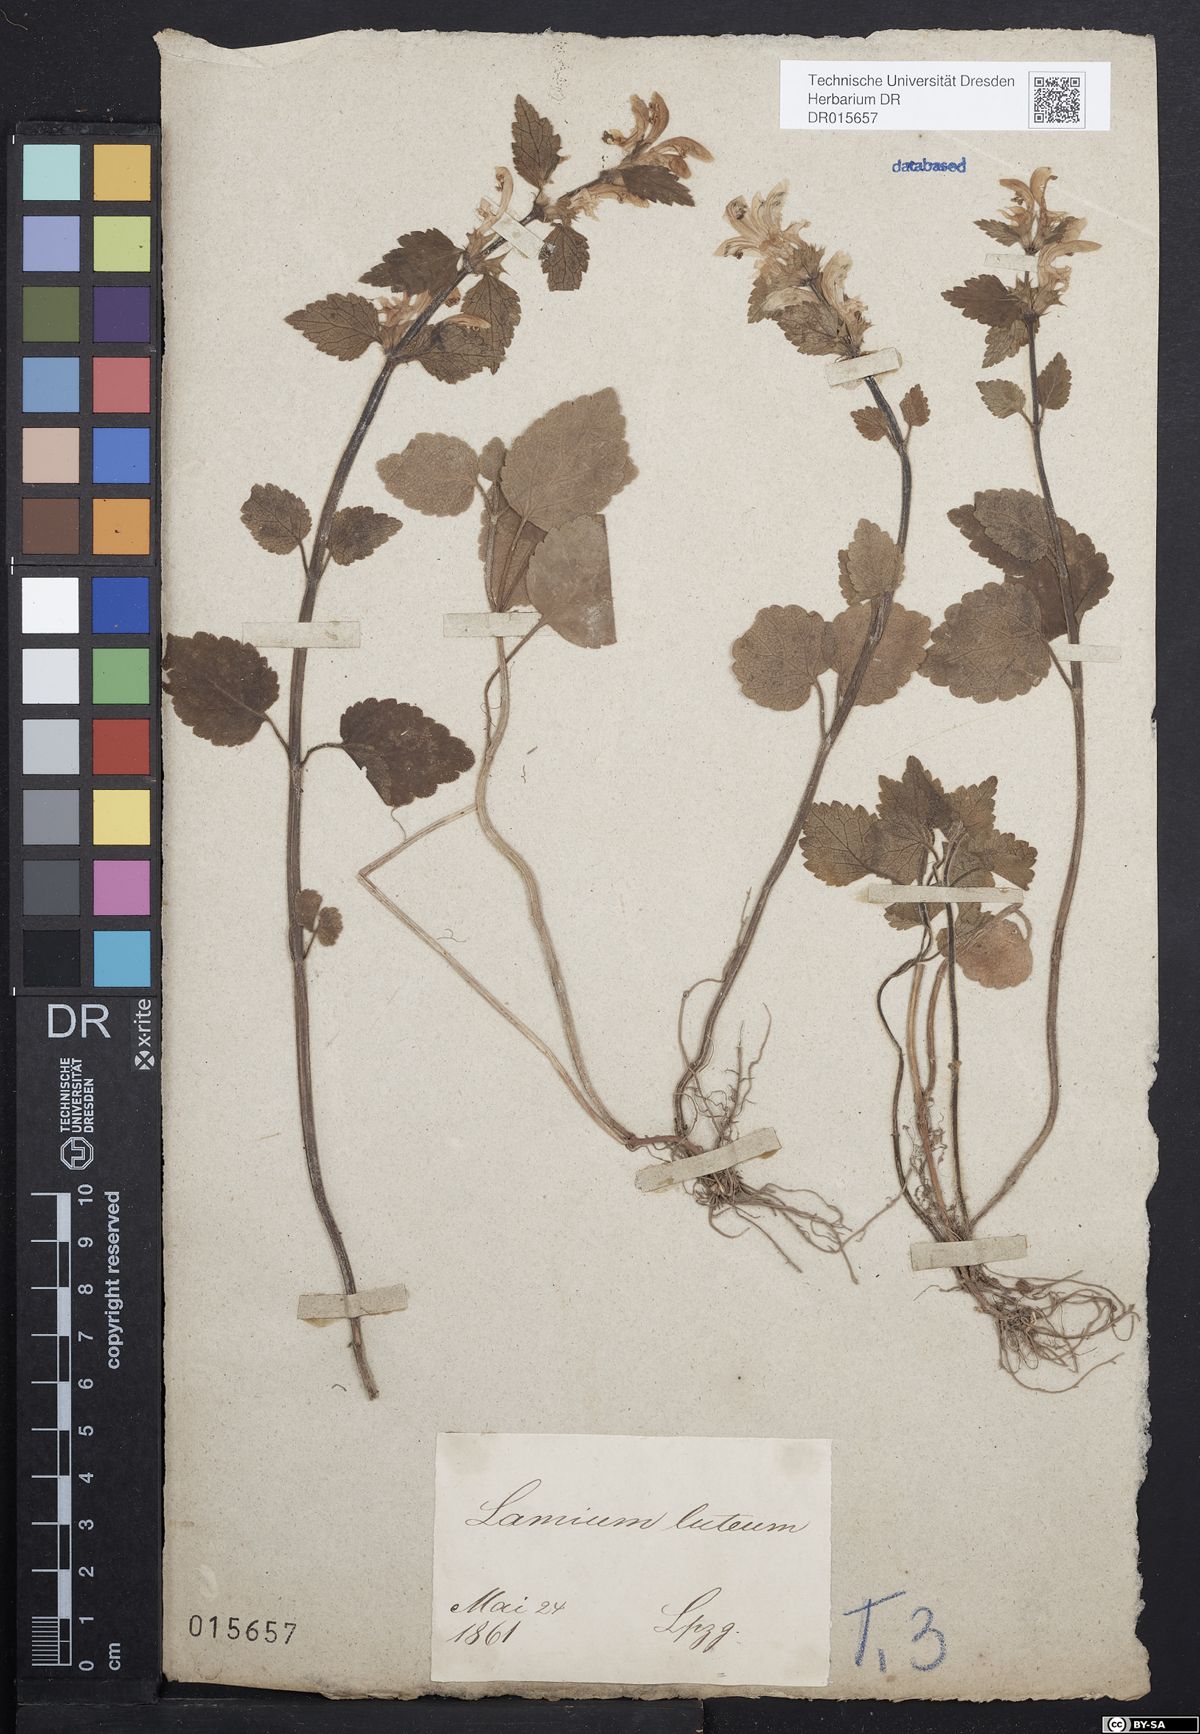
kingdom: Plantae
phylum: Tracheophyta
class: Magnoliopsida
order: Lamiales
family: Lamiaceae
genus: Lamium
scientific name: Lamium galeobdolon
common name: Yellow archangel
